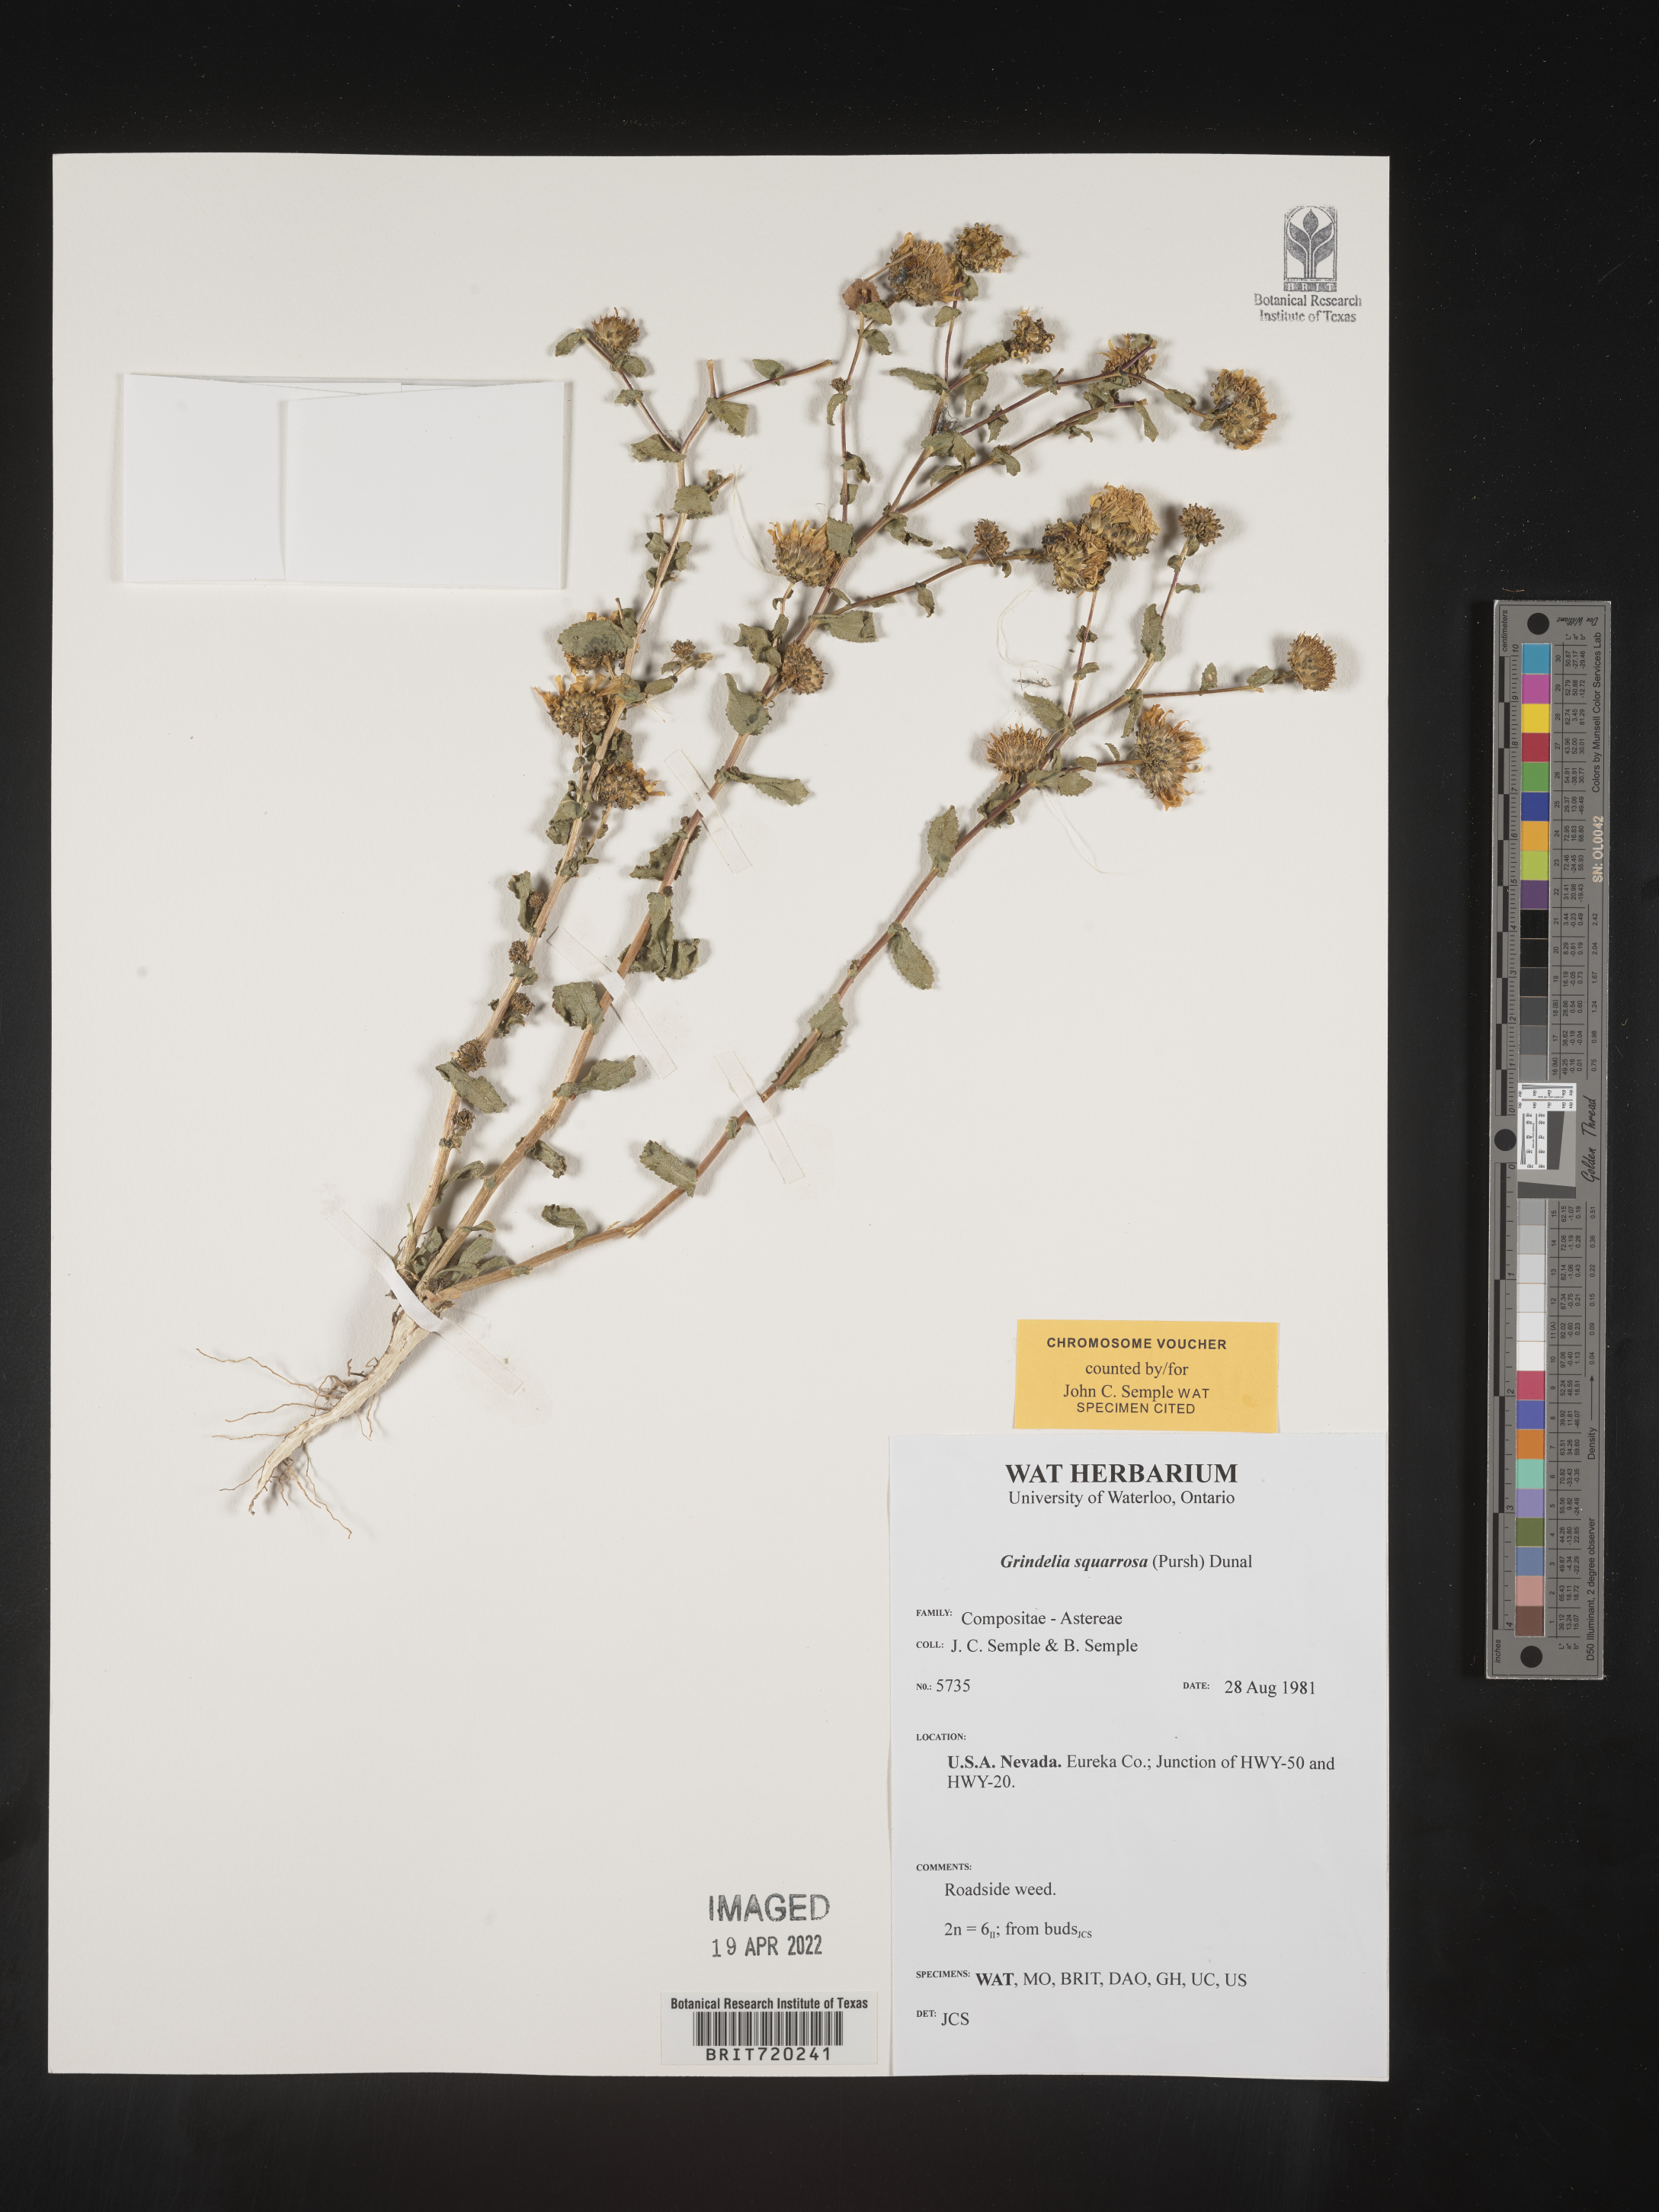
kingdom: Plantae
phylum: Tracheophyta
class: Magnoliopsida
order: Asterales
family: Asteraceae
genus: Grindelia
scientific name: Grindelia squarrosa
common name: Curly-cup gumweed
